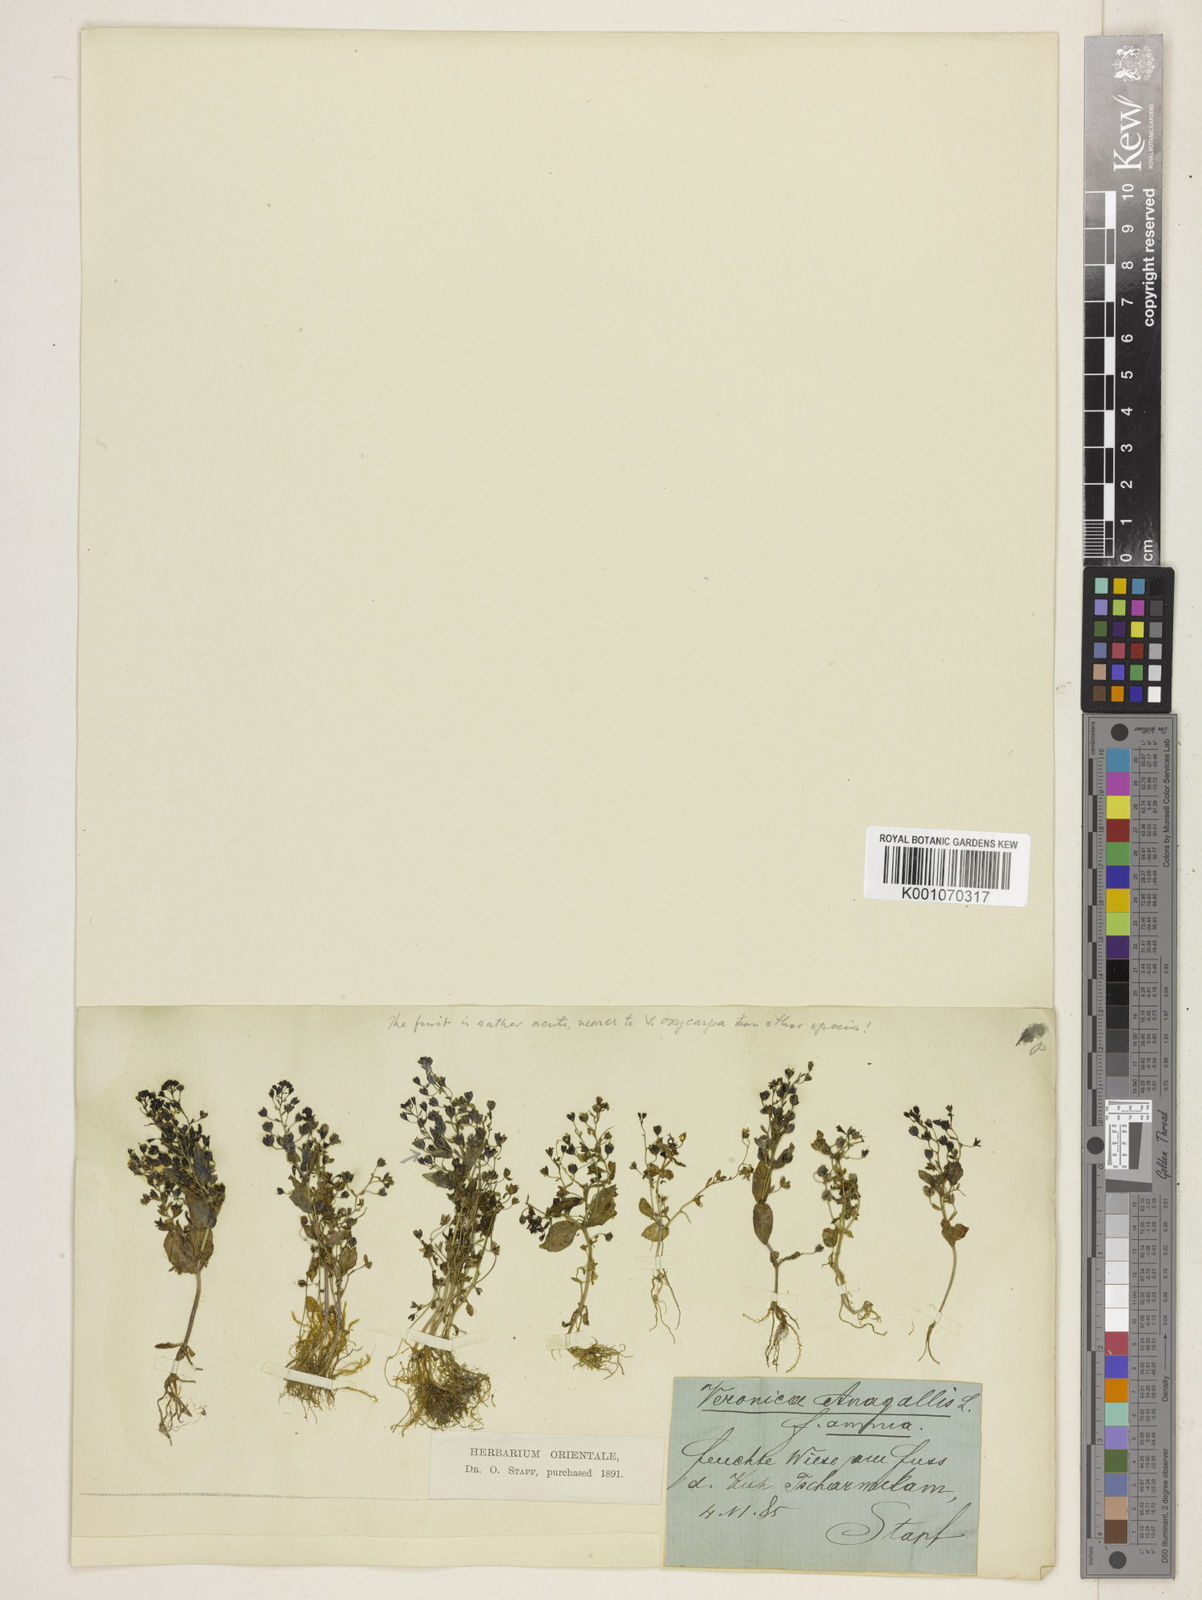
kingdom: Plantae
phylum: Tracheophyta
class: Magnoliopsida
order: Lamiales
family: Plantaginaceae
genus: Veronica
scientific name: Veronica oxycarpa
